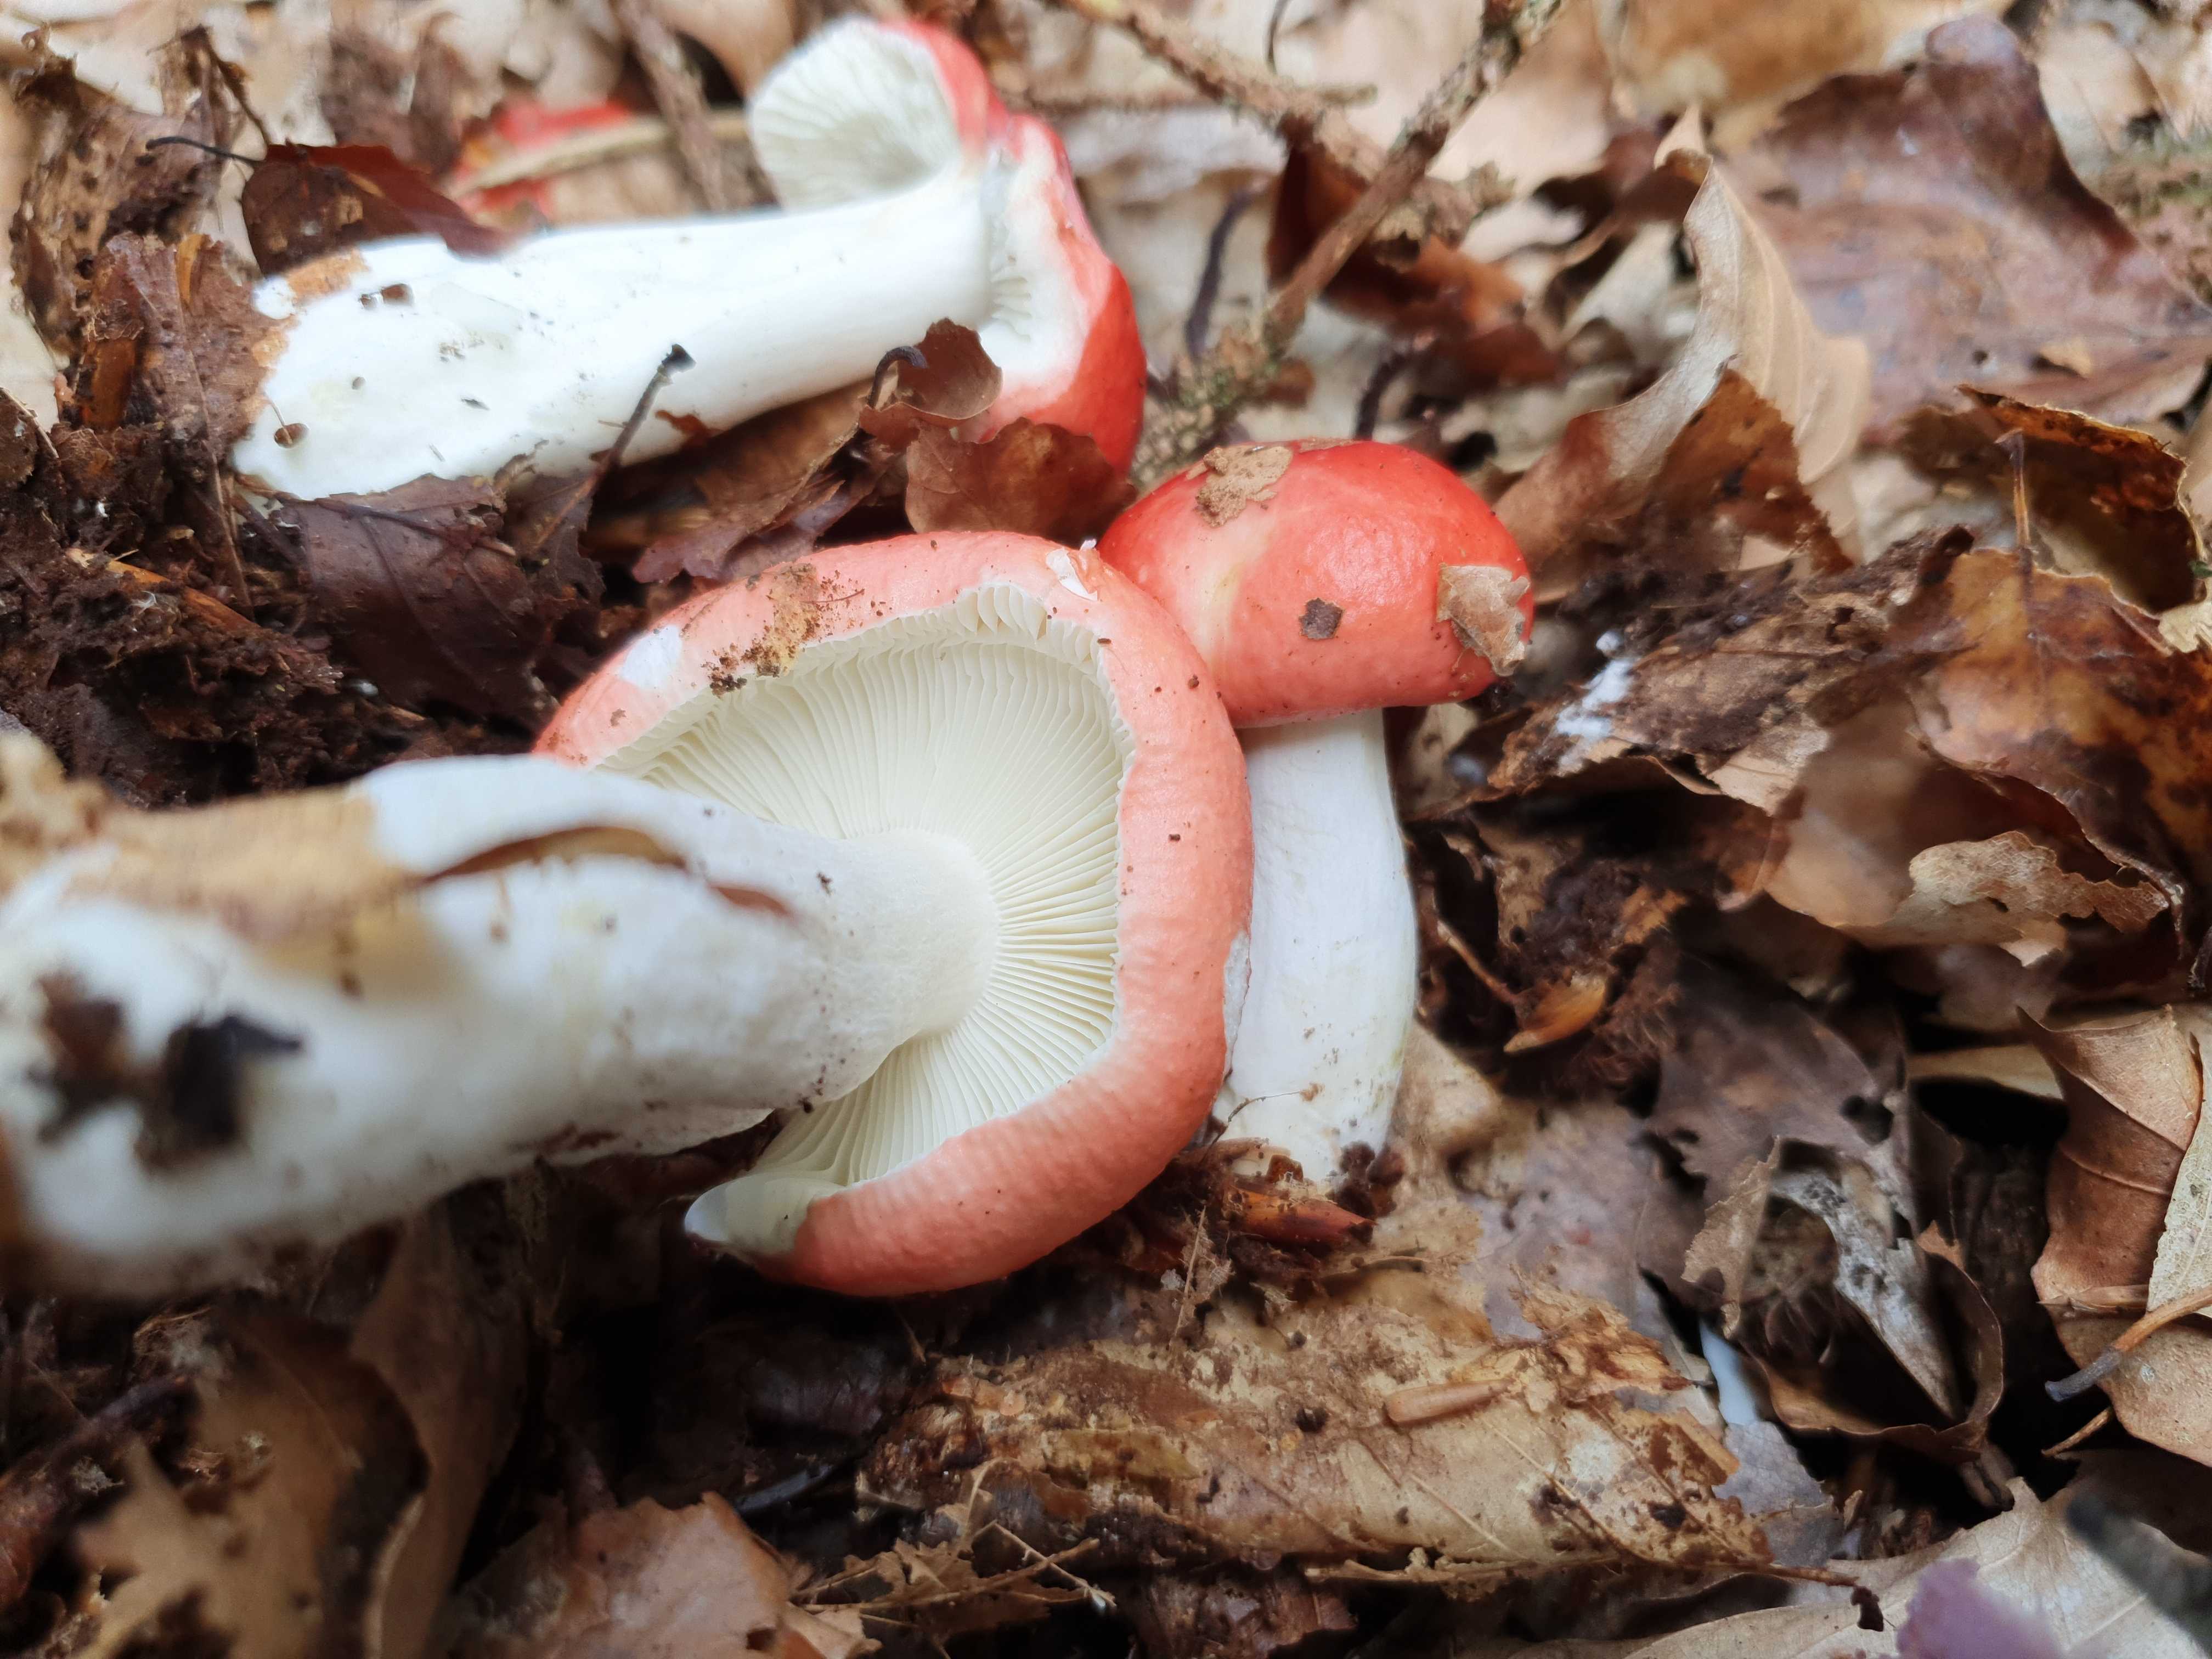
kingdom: Fungi
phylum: Basidiomycota
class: Agaricomycetes
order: Russulales
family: Russulaceae
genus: Russula
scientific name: Russula nobilis
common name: lille gift-skørhat
